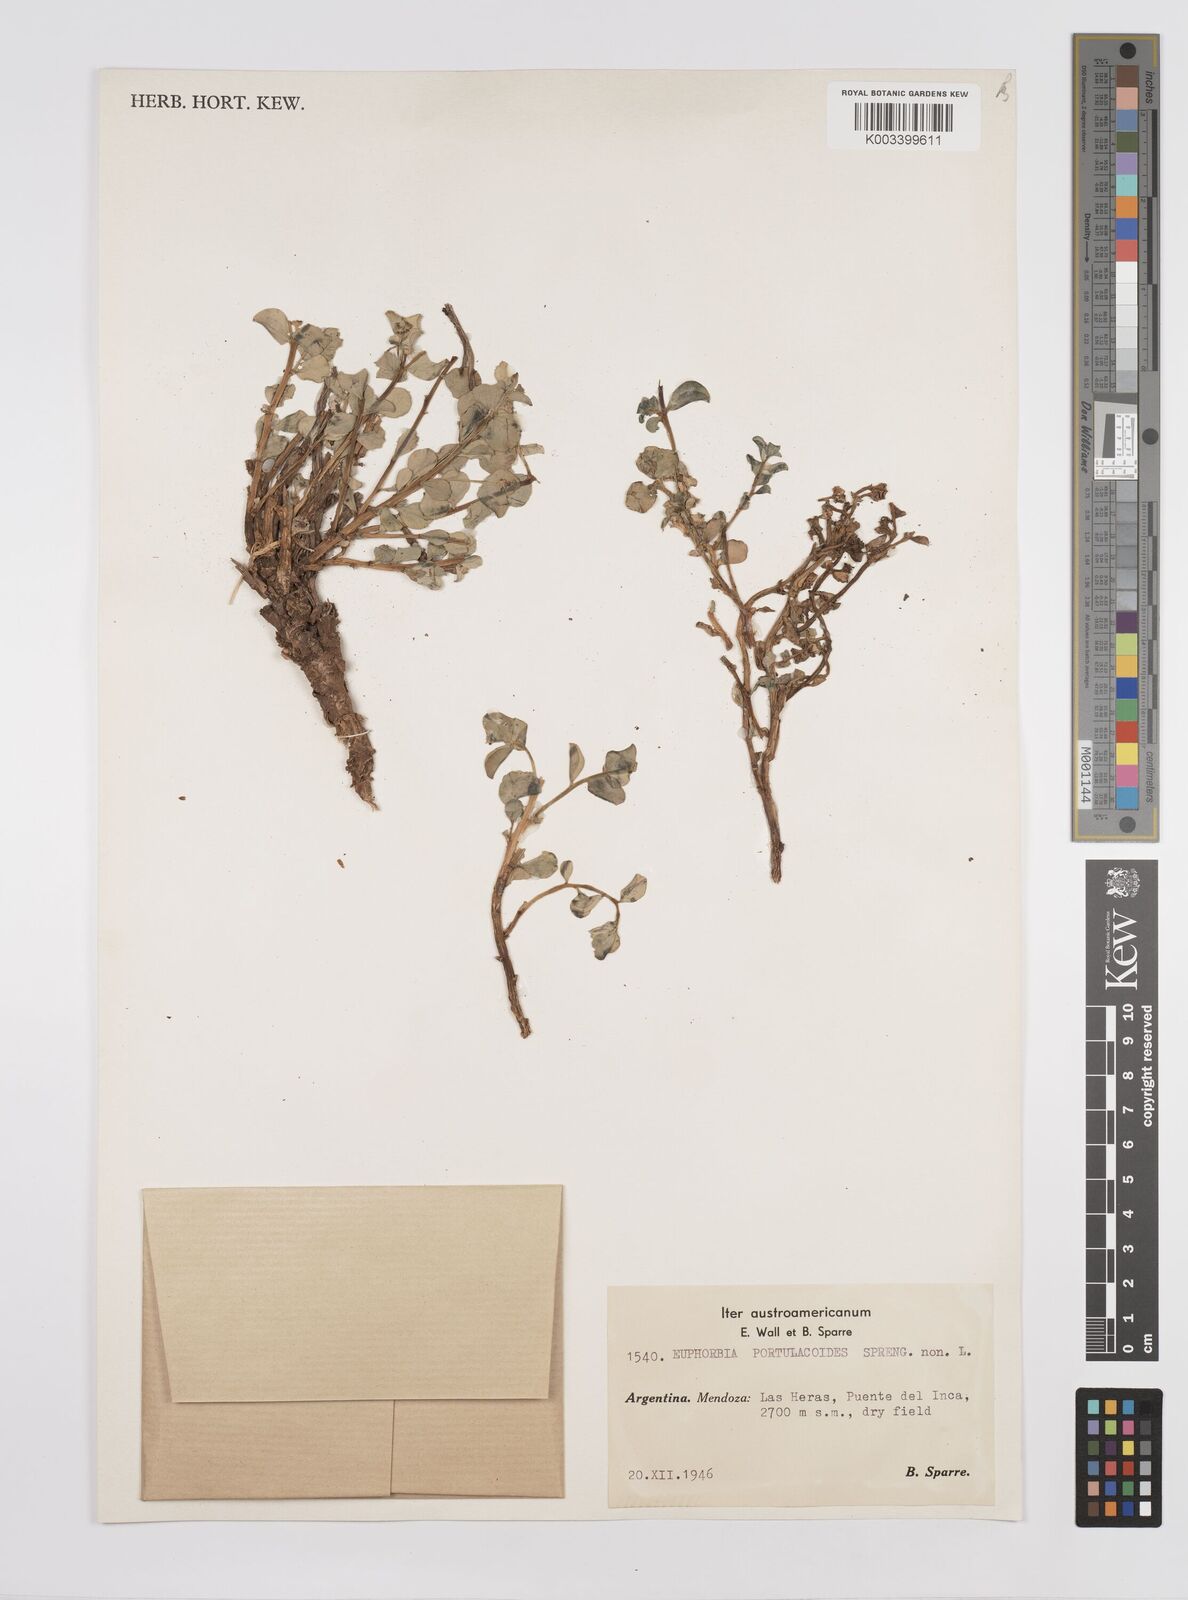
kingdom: Plantae
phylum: Tracheophyta
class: Magnoliopsida
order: Malpighiales
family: Euphorbiaceae
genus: Euphorbia
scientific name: Euphorbia portulacoides
